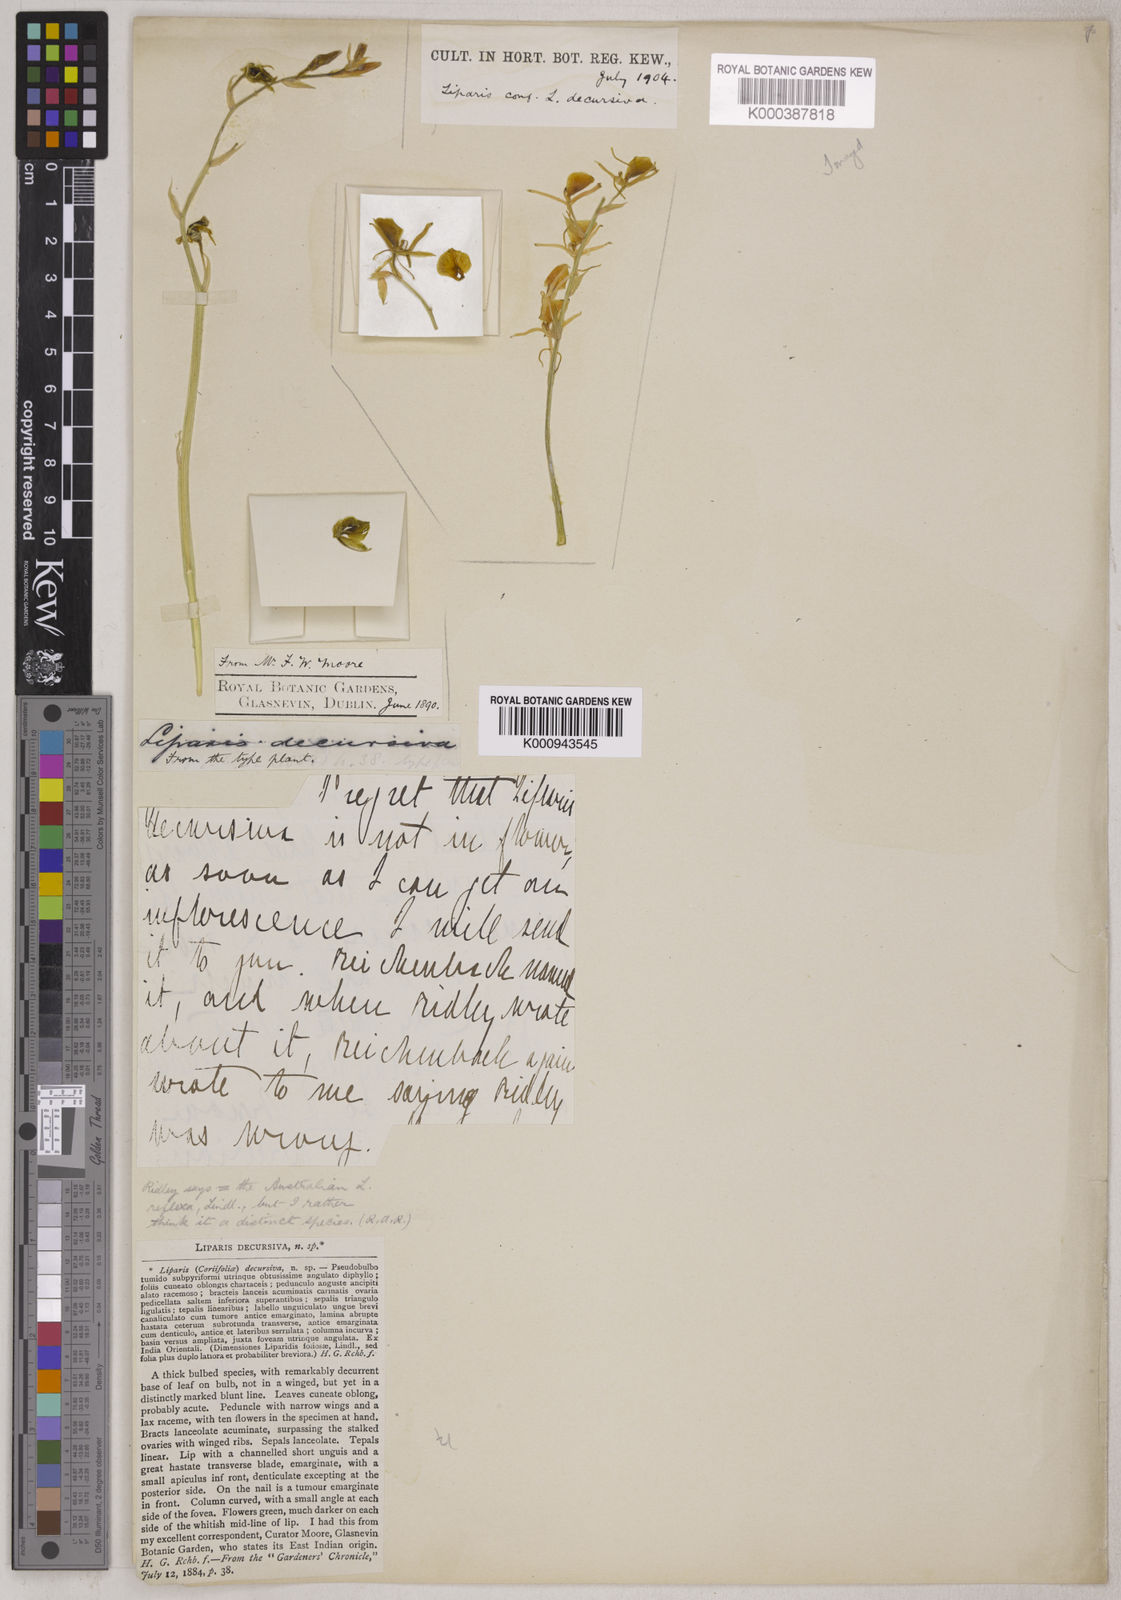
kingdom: Plantae
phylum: Tracheophyta
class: Liliopsida
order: Asparagales
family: Orchidaceae
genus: Liparis
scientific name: Liparis reflexa
